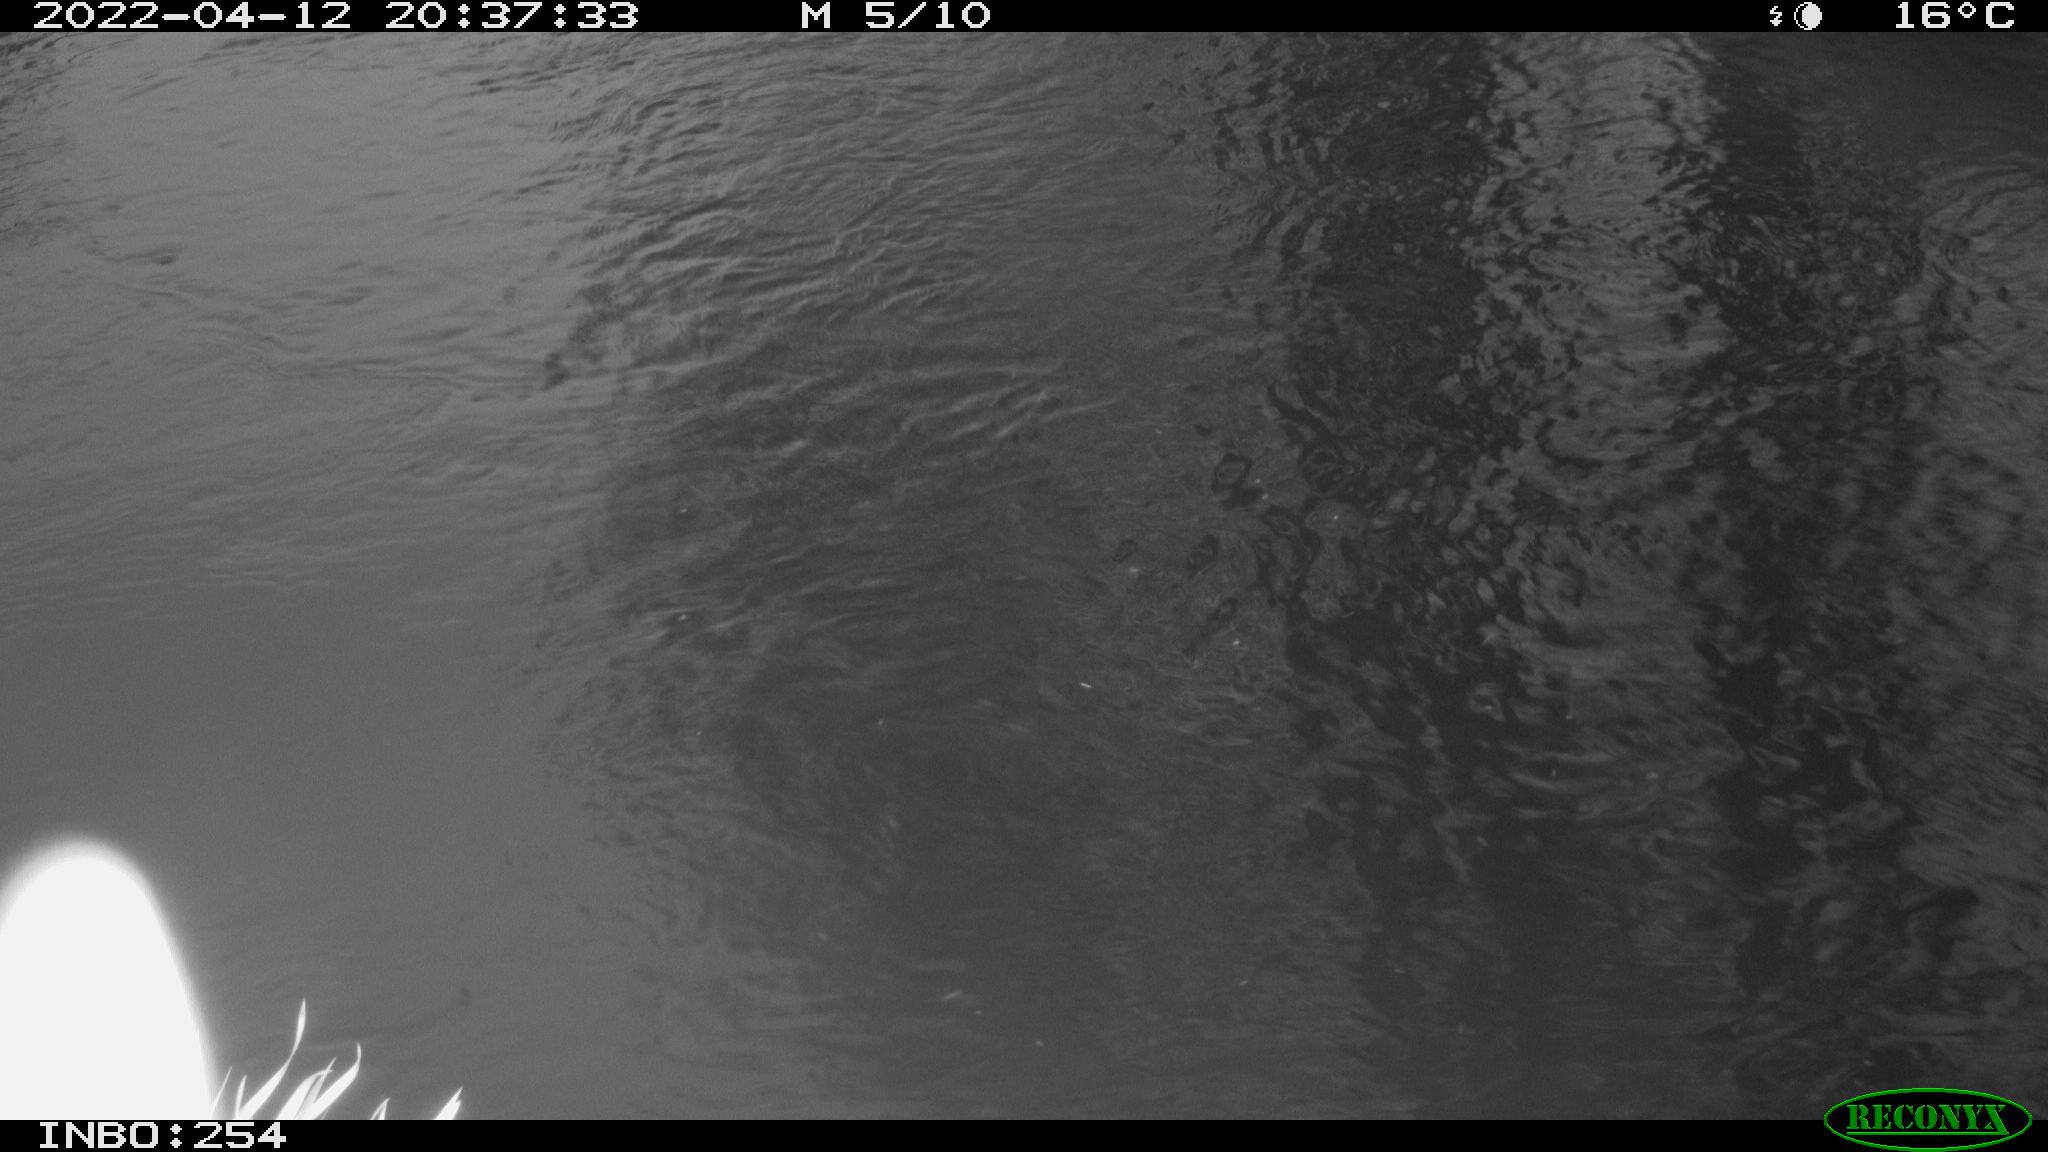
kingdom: Animalia
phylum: Chordata
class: Mammalia
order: Lagomorpha
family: Leporidae
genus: Lepus
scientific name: Lepus europaeus
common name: European hare
